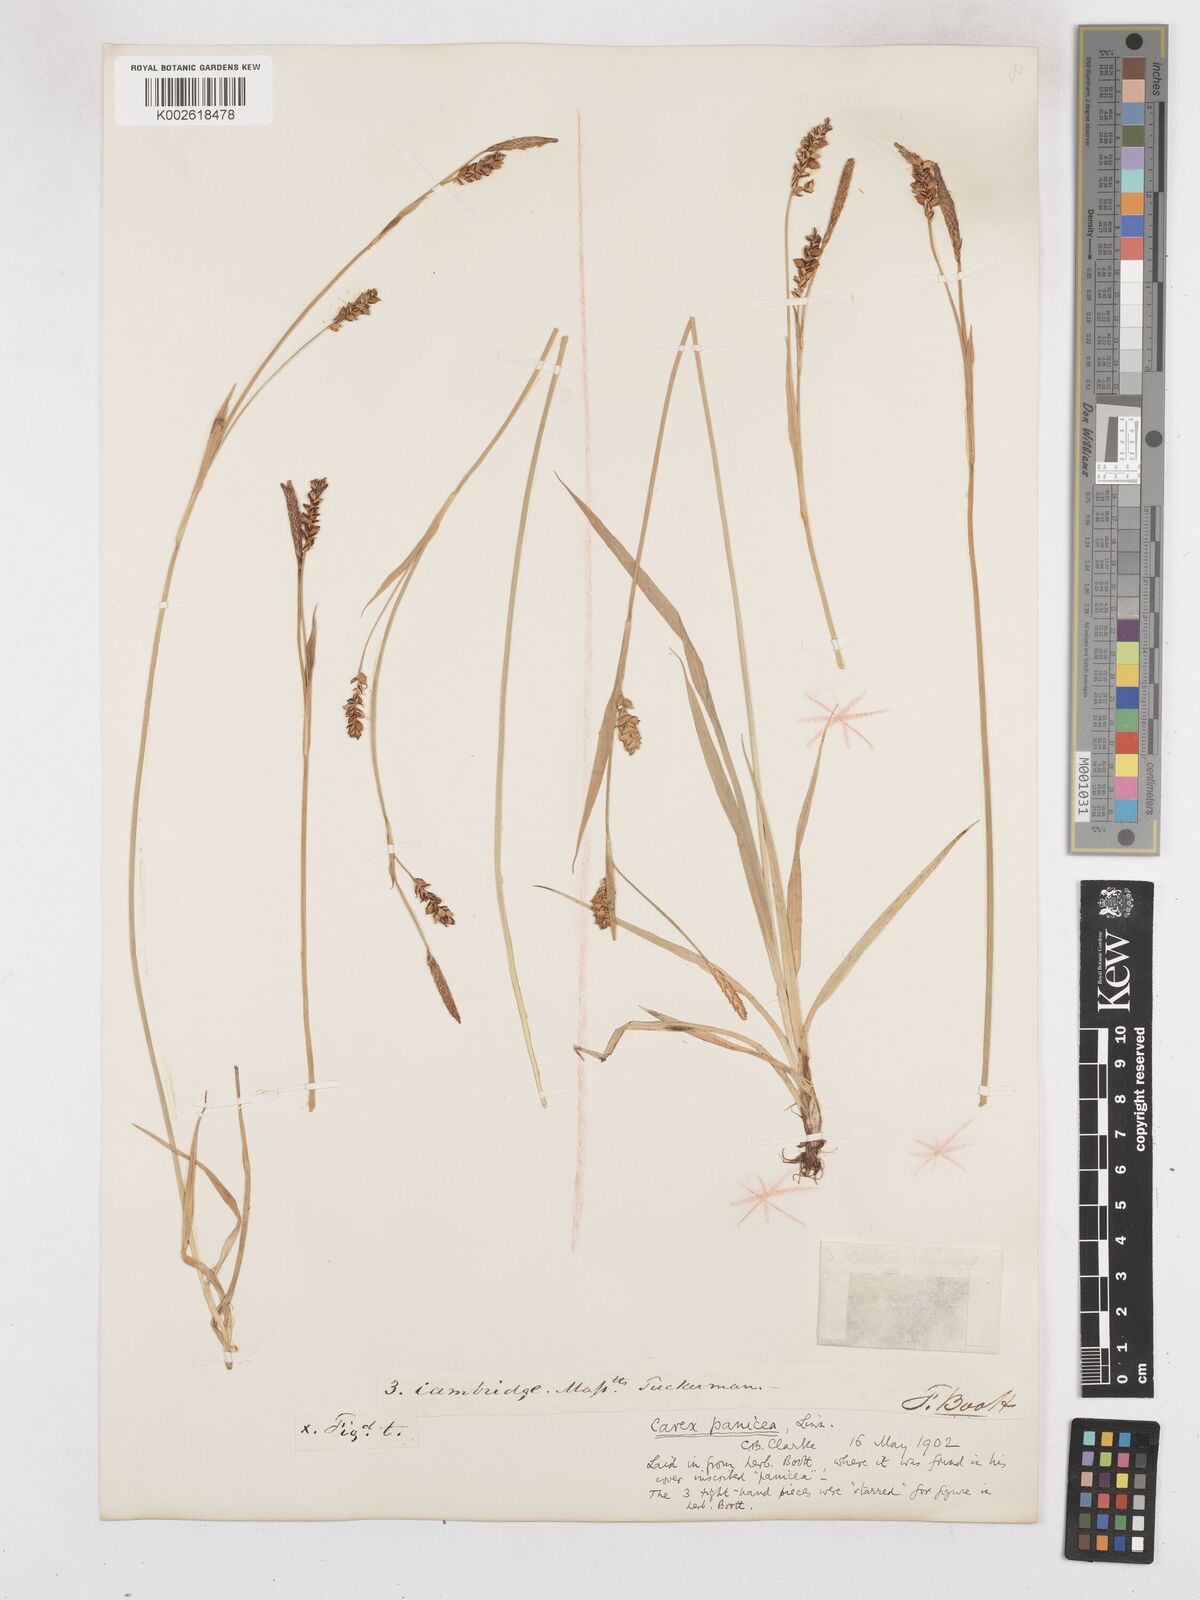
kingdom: Plantae
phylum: Tracheophyta
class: Liliopsida
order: Poales
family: Cyperaceae
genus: Carex
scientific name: Carex panicea
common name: Carnation sedge
